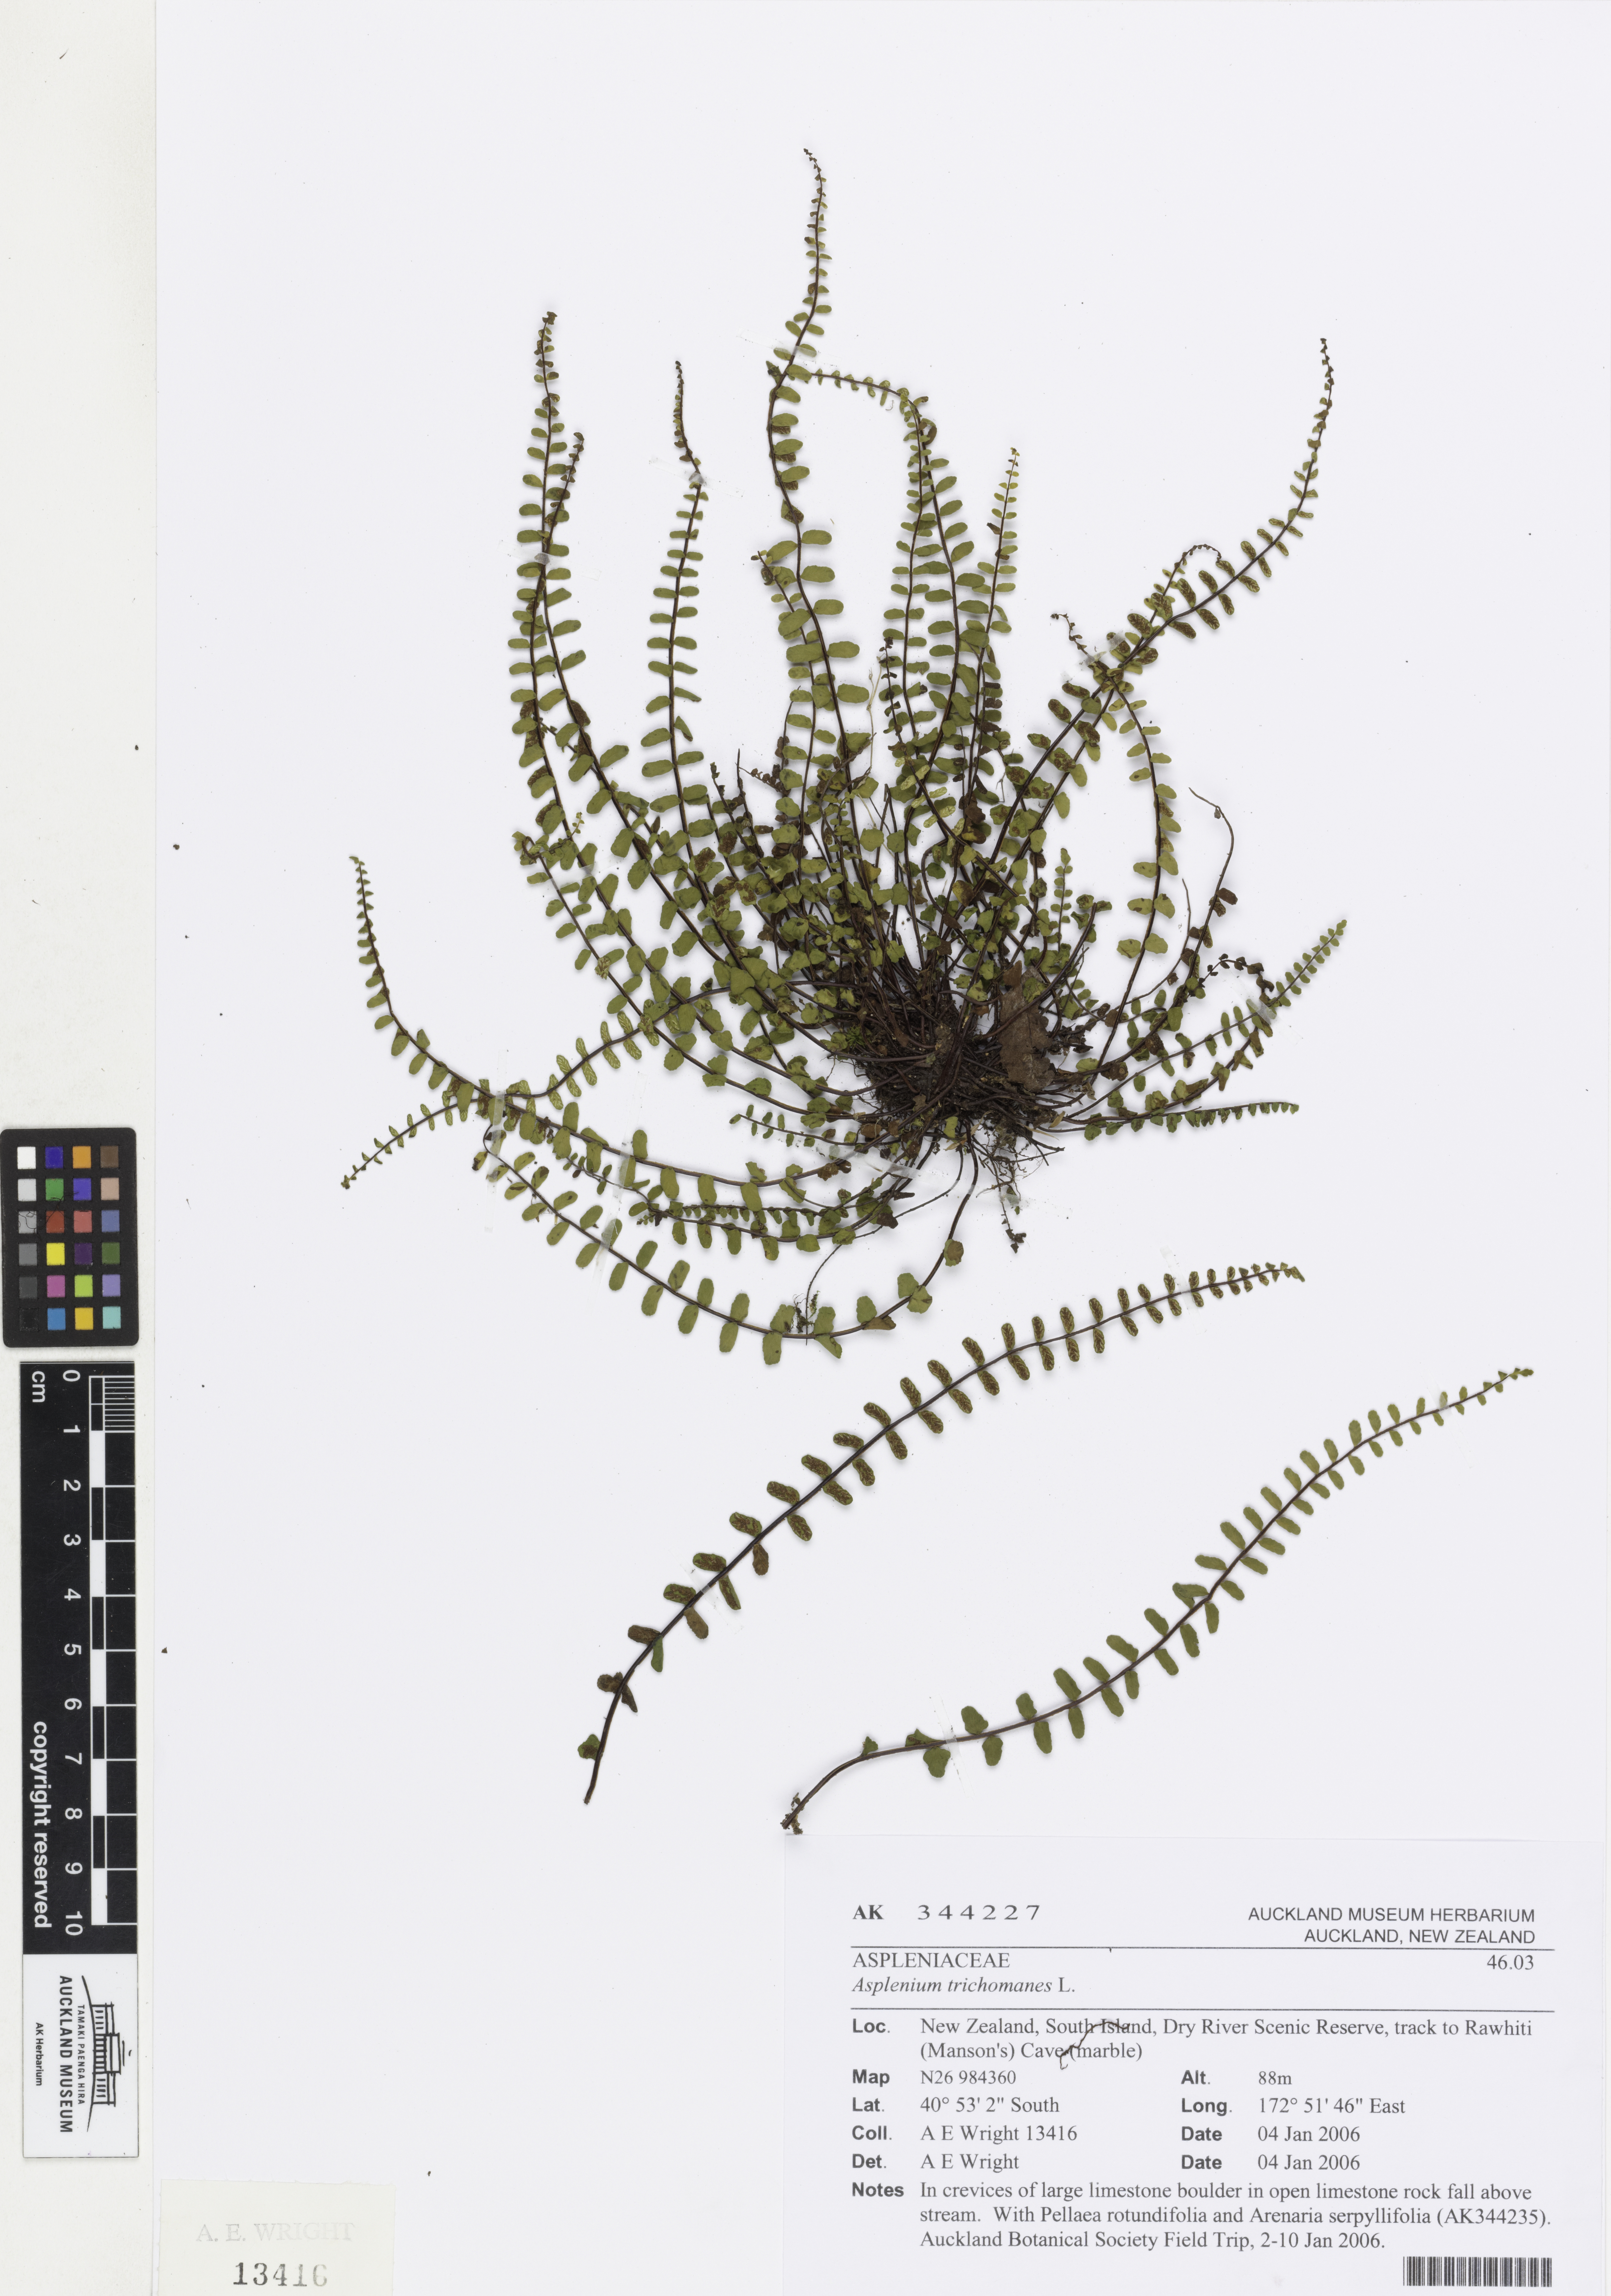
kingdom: Plantae
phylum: Tracheophyta
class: Polypodiopsida
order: Polypodiales
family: Aspleniaceae
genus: Asplenium
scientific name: Asplenium trichomanes
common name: Maidenhair spleenwort
